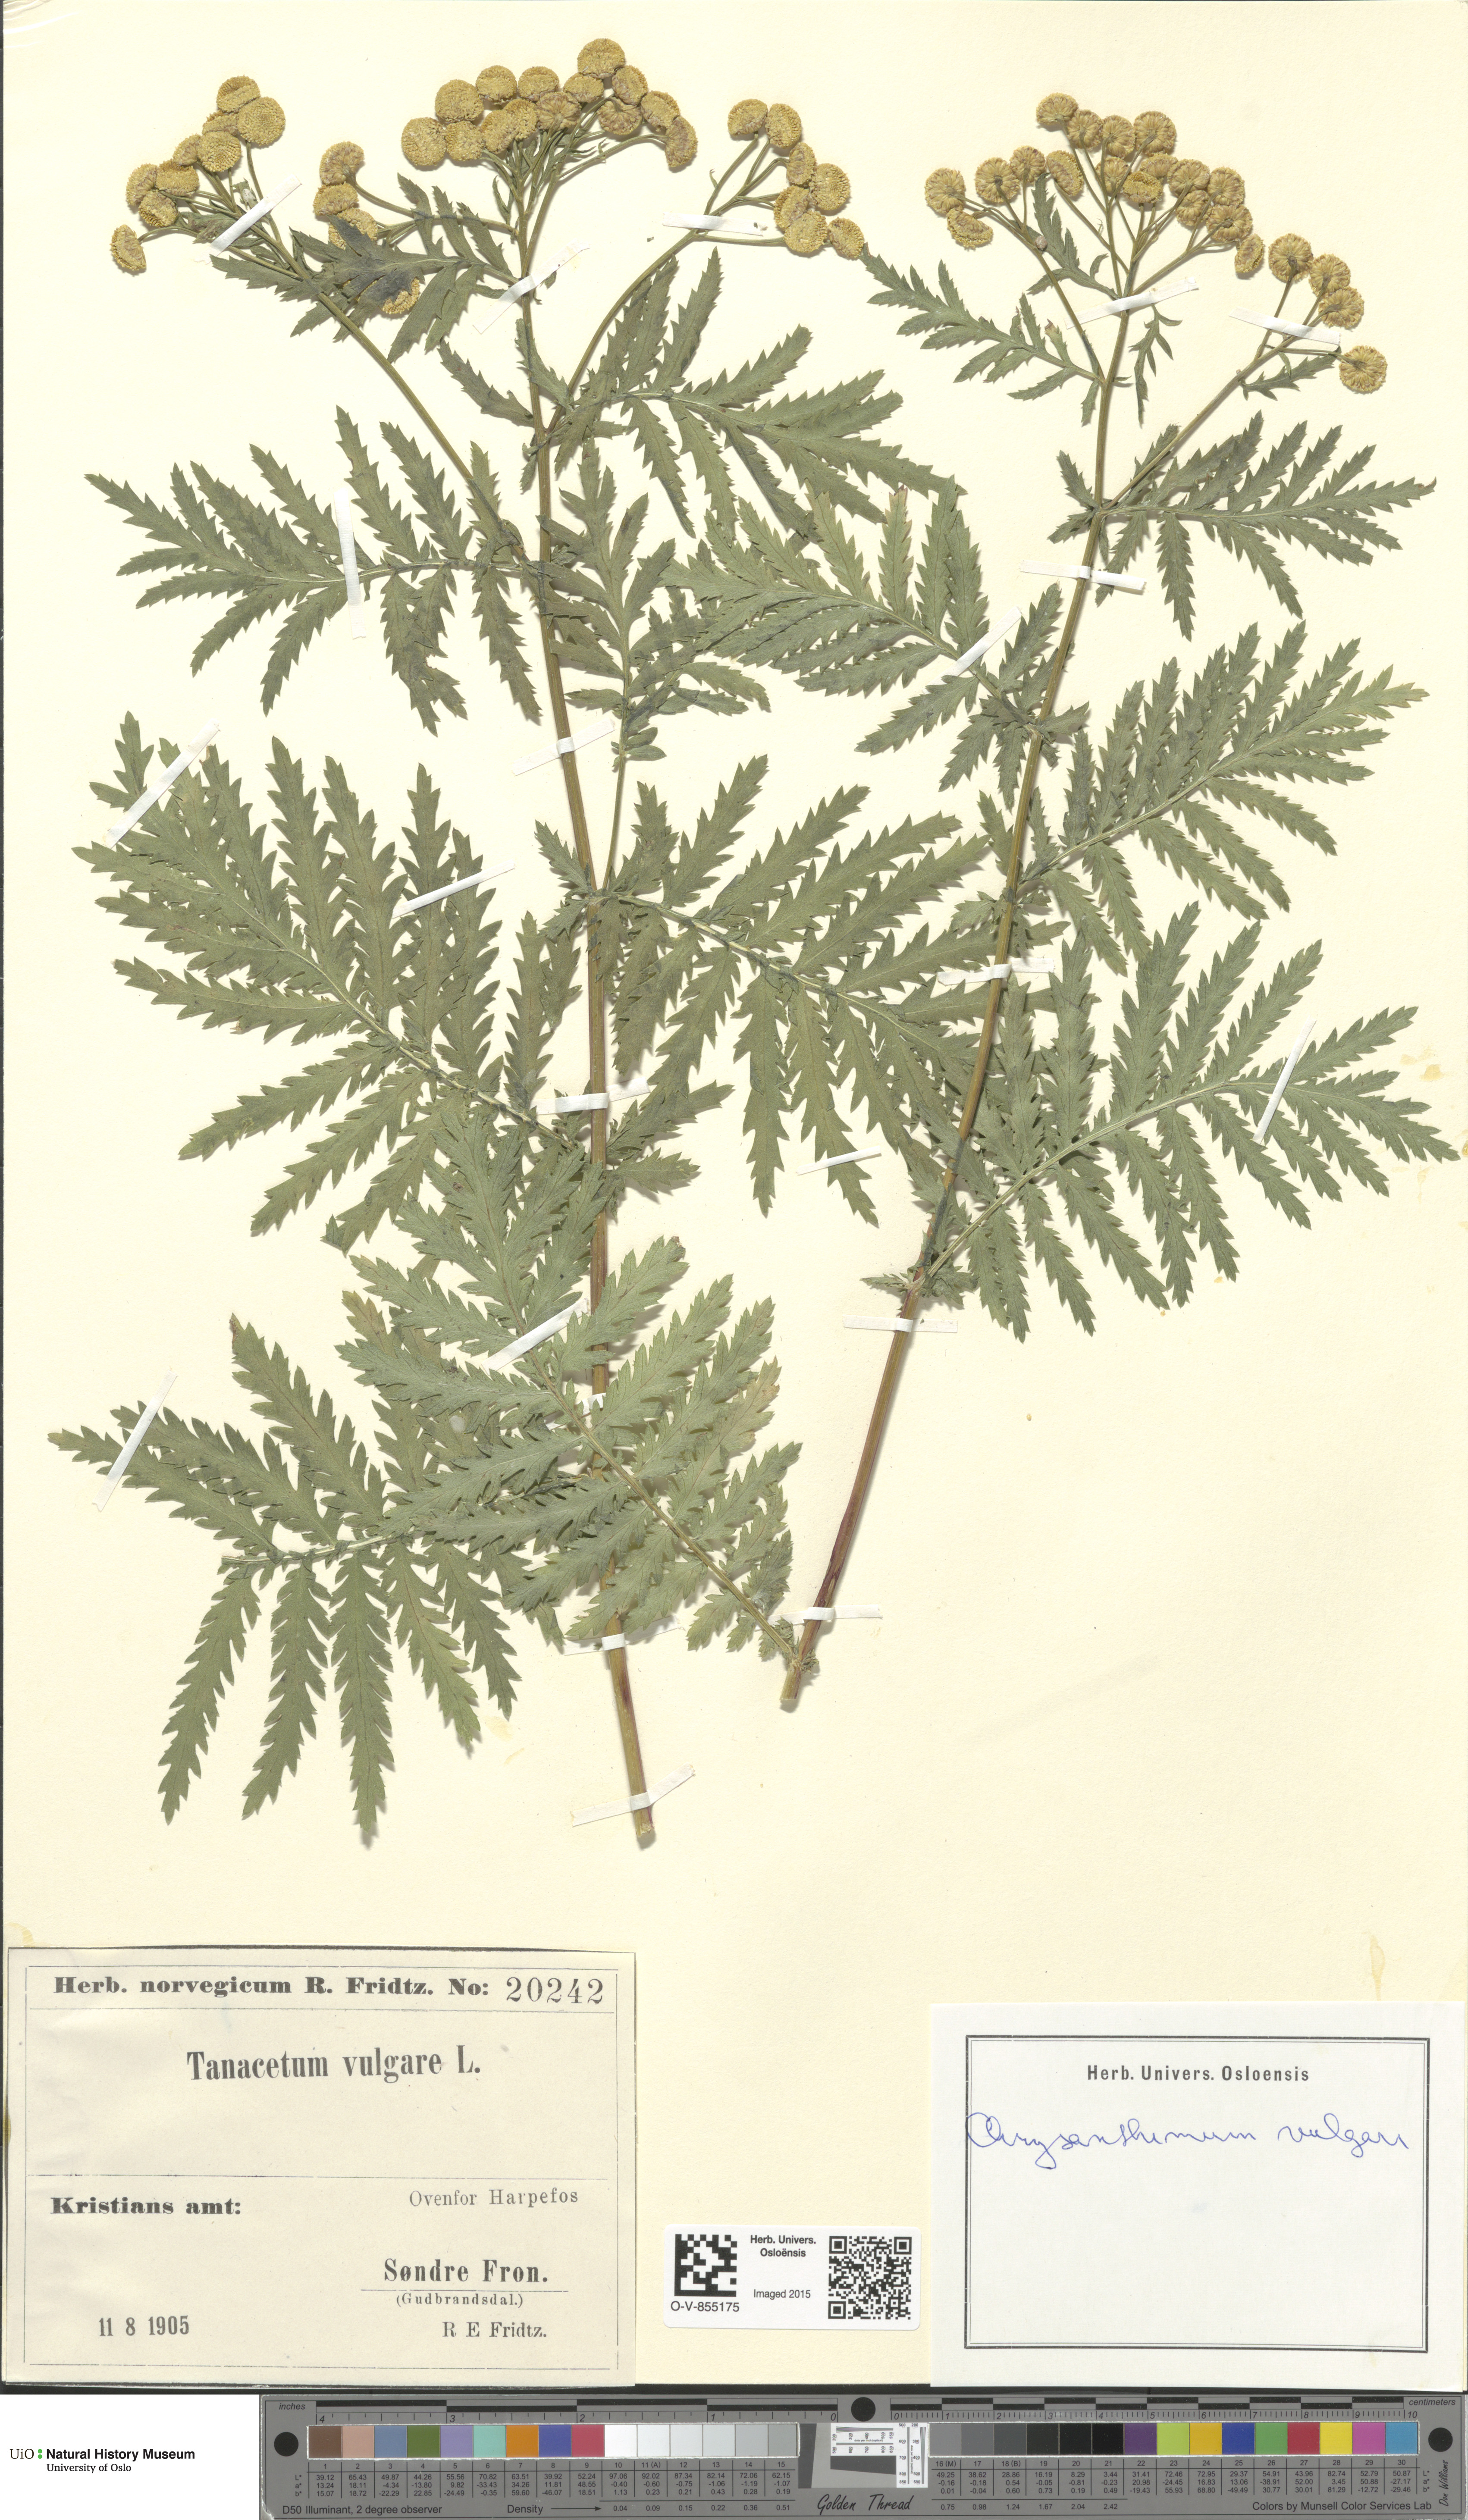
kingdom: Plantae
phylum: Tracheophyta
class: Magnoliopsida
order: Asterales
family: Asteraceae
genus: Tanacetum
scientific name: Tanacetum vulgare
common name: Common tansy
